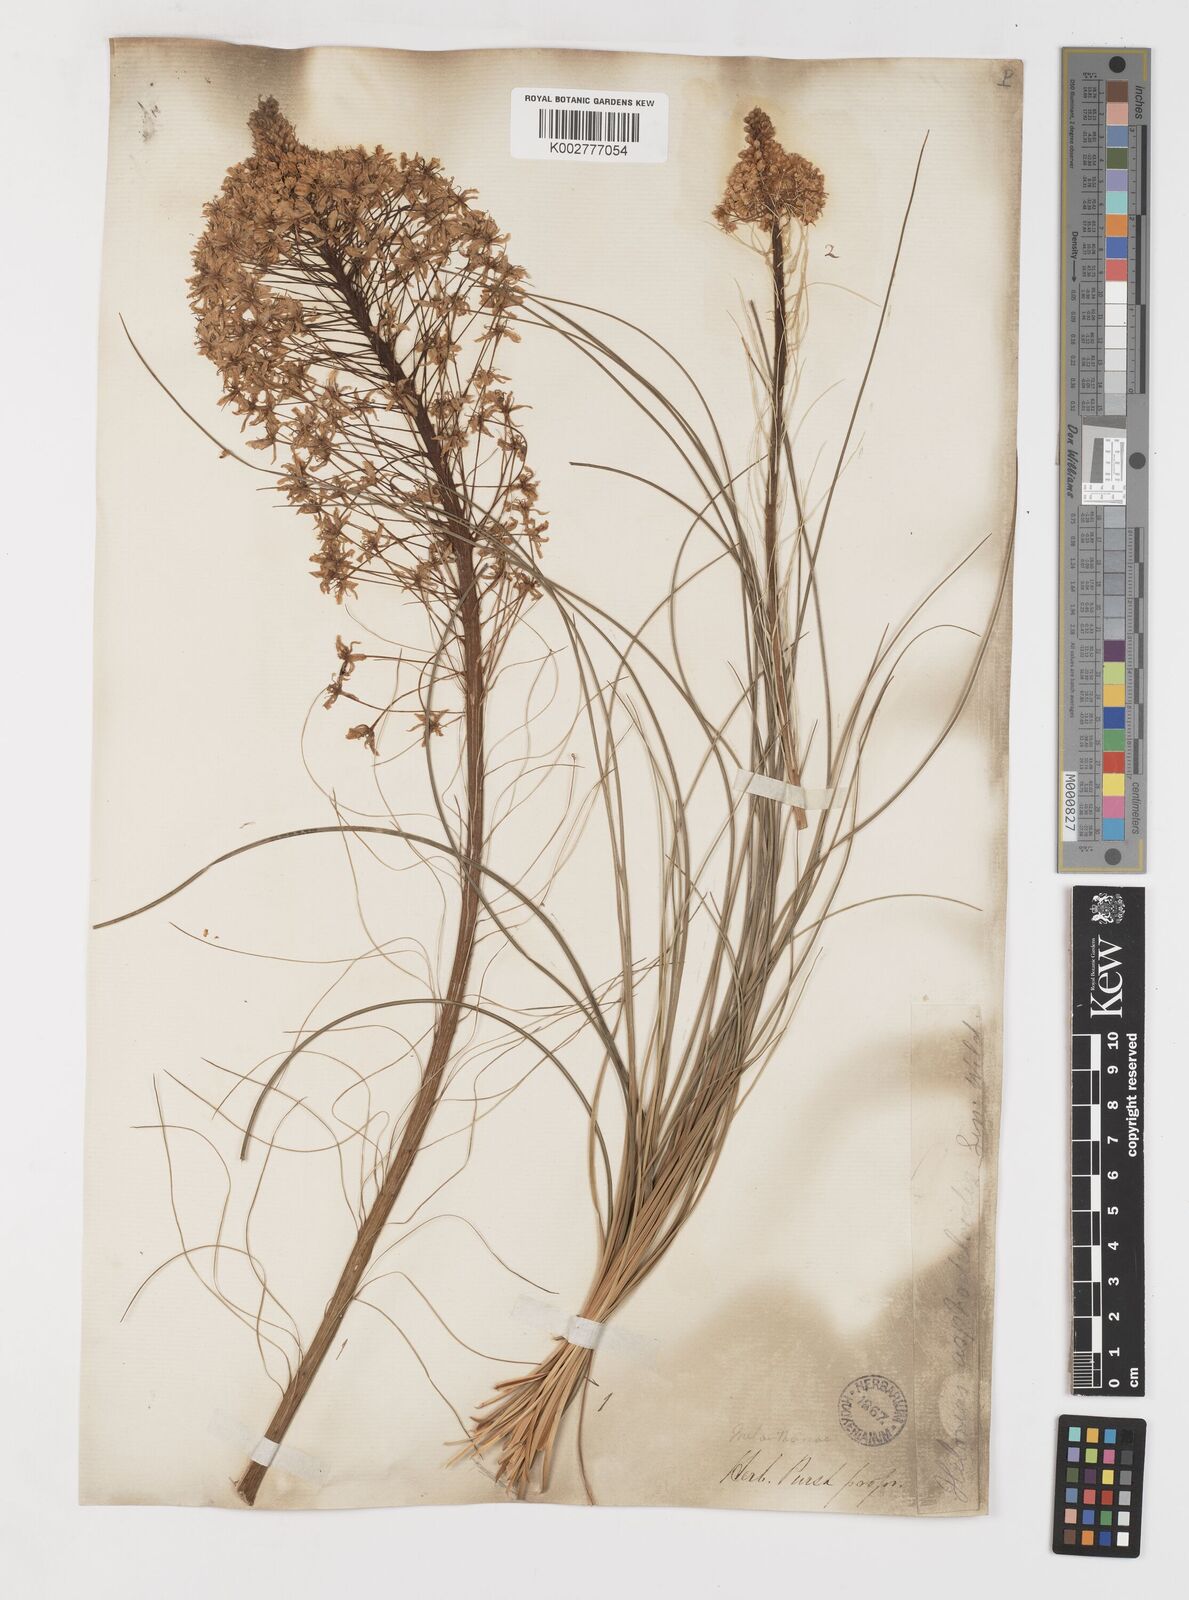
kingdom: Plantae
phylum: Tracheophyta
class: Liliopsida
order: Liliales
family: Melanthiaceae
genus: Xerophyllum
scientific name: Xerophyllum asphodeloides
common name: Mountain-asphodel
